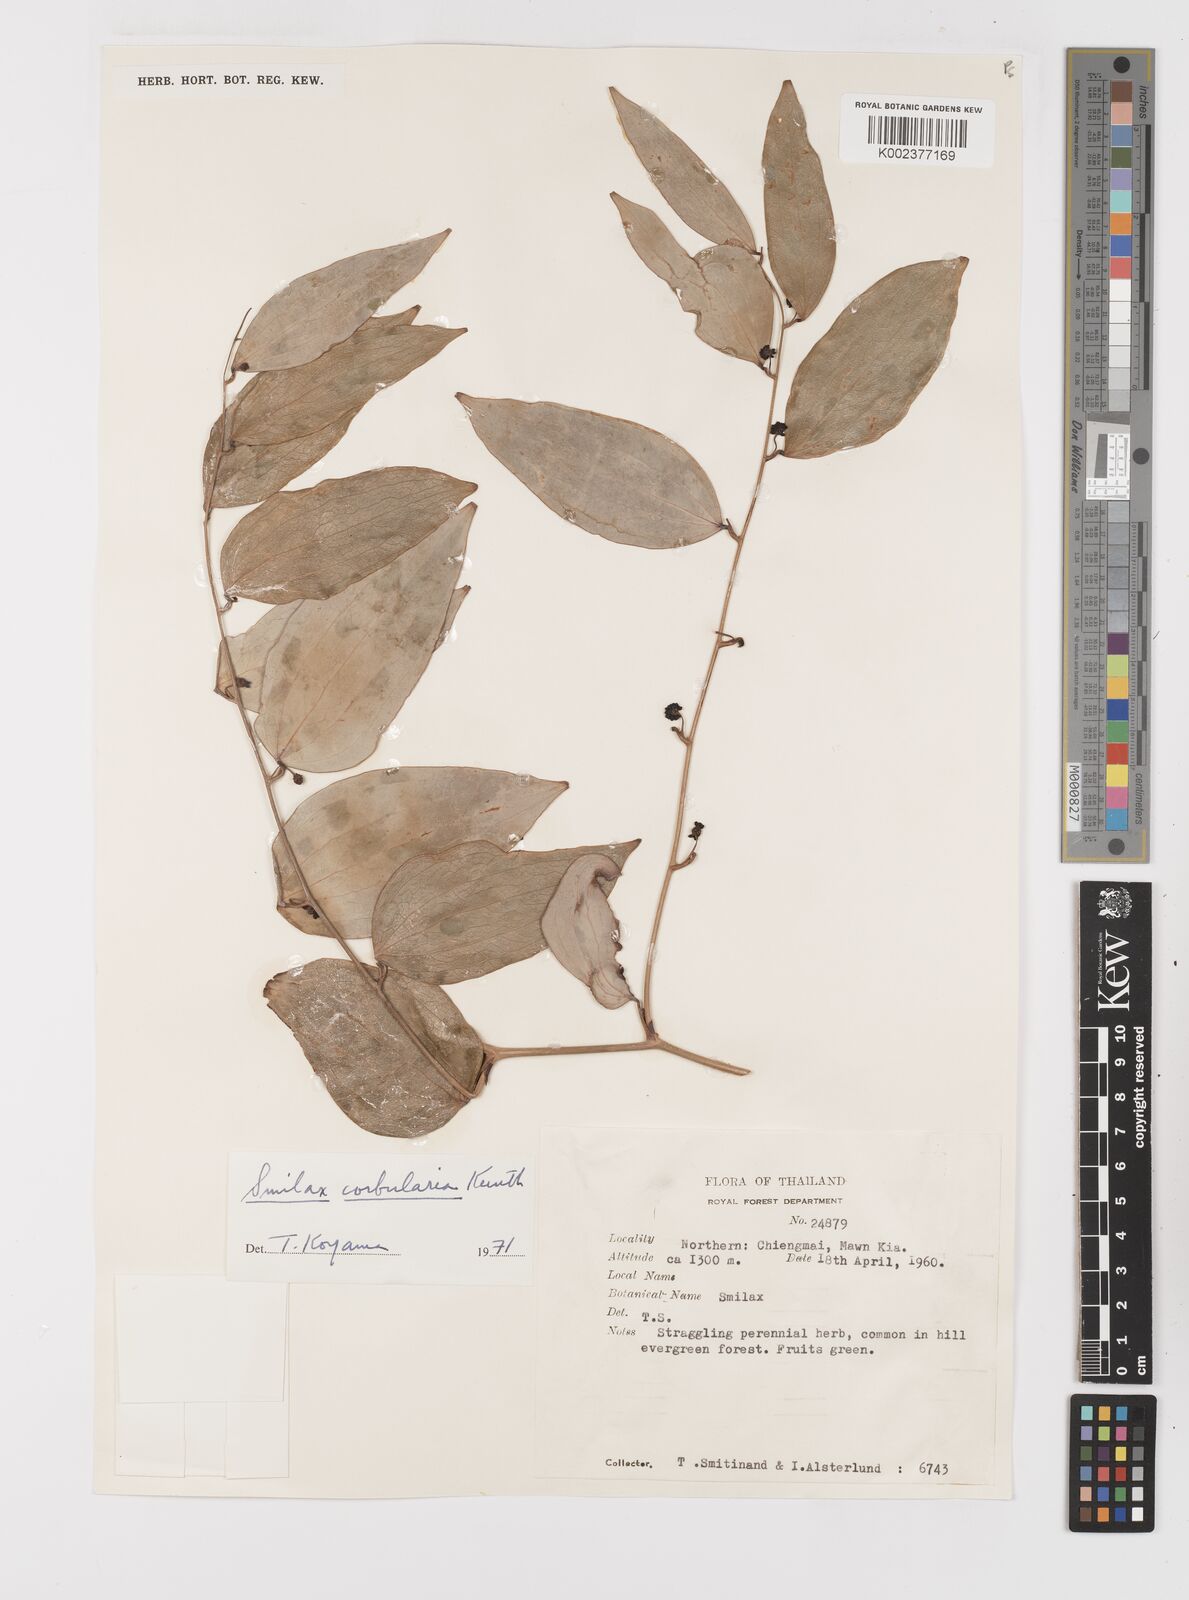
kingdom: Plantae
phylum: Tracheophyta
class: Liliopsida
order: Liliales
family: Smilacaceae
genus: Smilax
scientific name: Smilax corbularia
